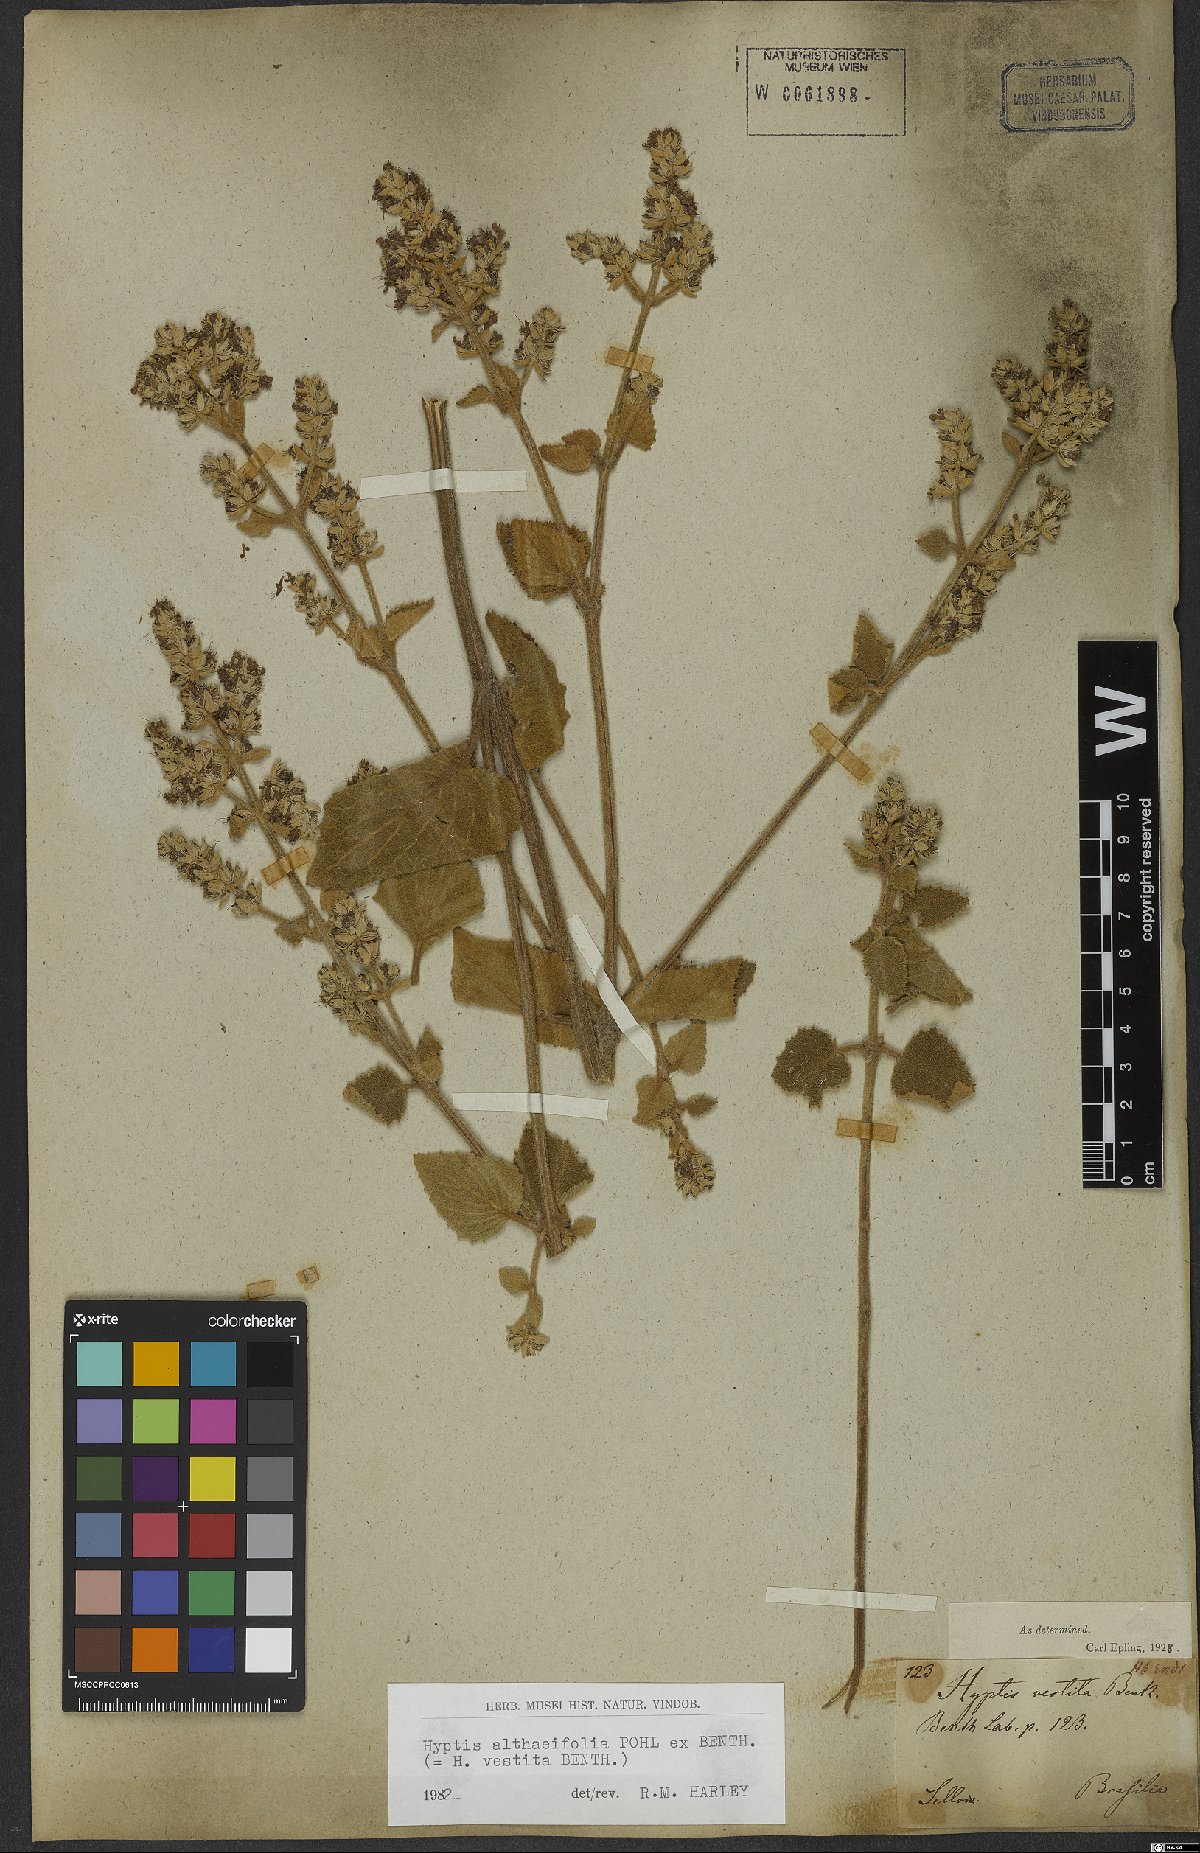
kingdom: Plantae
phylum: Tracheophyta
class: Magnoliopsida
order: Lamiales
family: Lamiaceae
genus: Cantinoa
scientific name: Cantinoa althaeifolia
